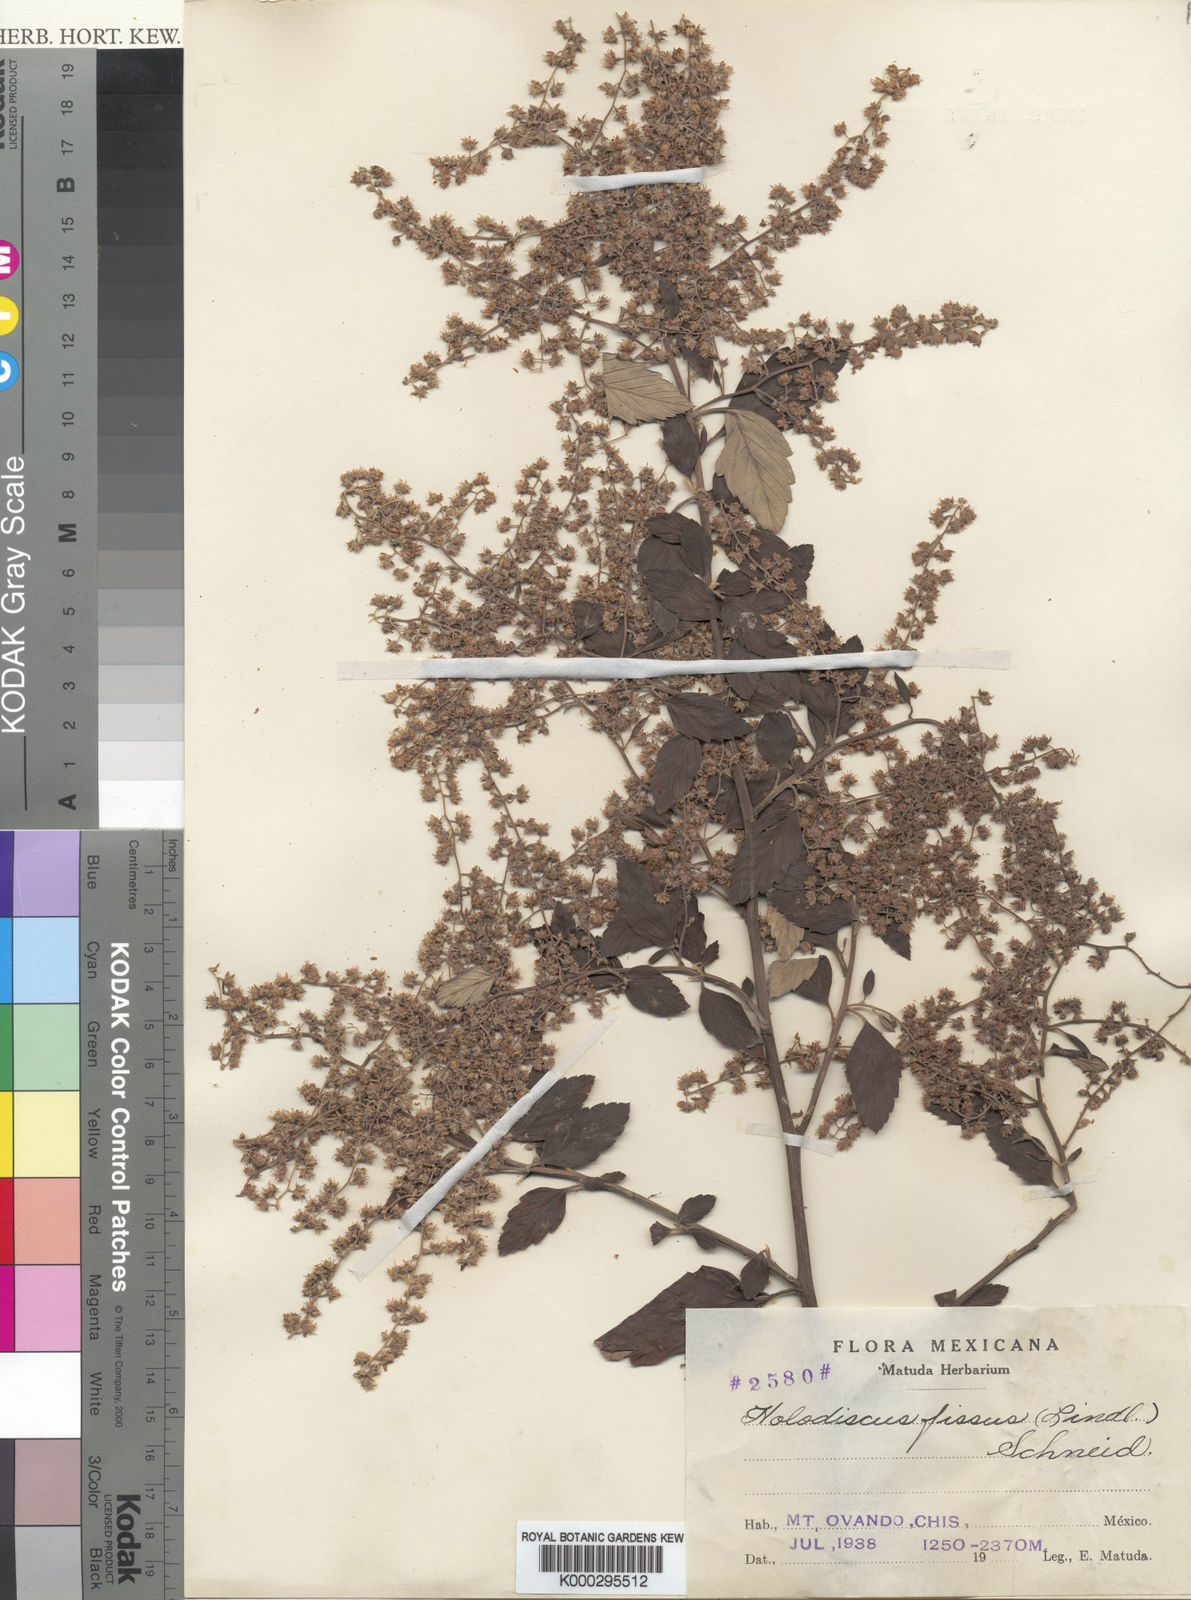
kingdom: Plantae
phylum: Tracheophyta
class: Magnoliopsida
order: Rosales
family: Rosaceae
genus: Holodiscus
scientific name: Holodiscus fissus
